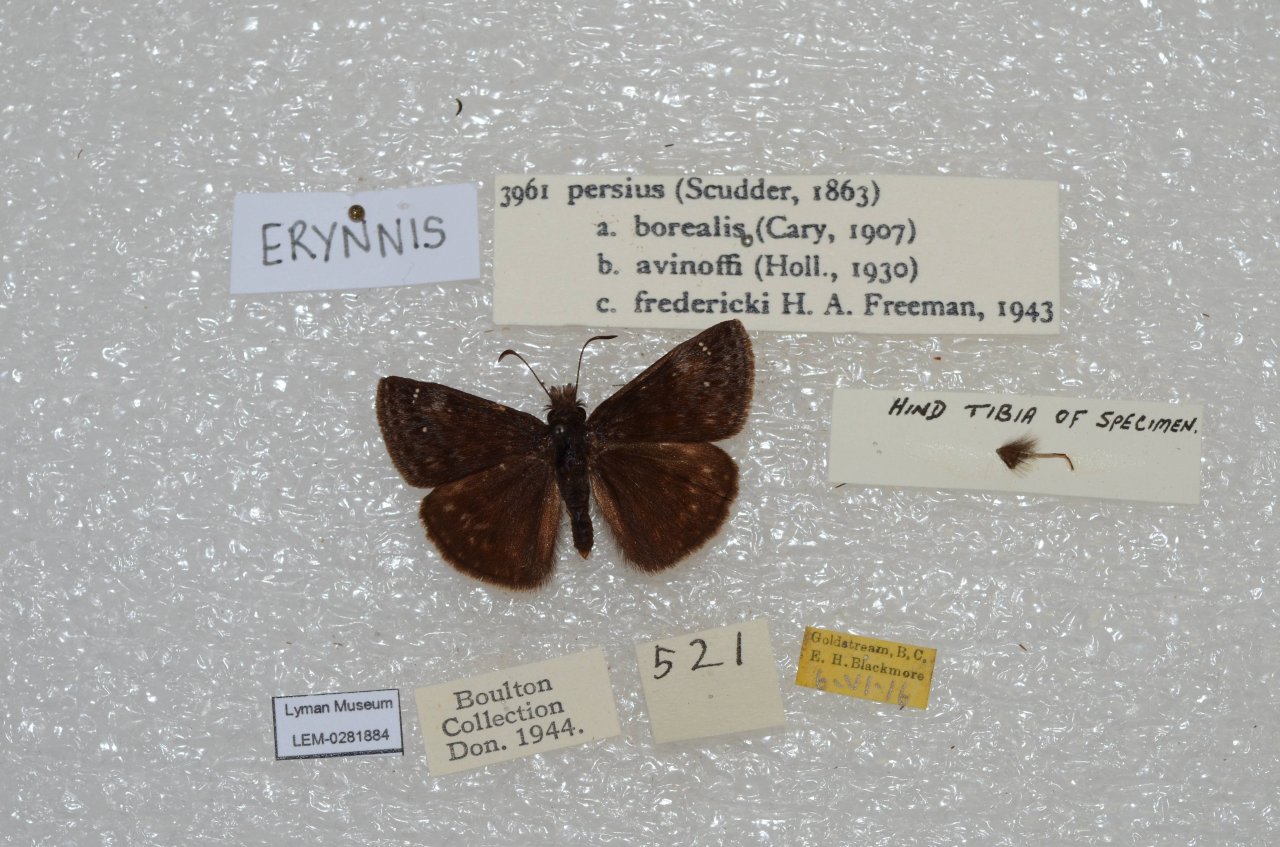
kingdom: Animalia
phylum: Arthropoda
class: Insecta
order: Lepidoptera
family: Hesperiidae
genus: Gesta
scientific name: Gesta
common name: Persius Duskywing
